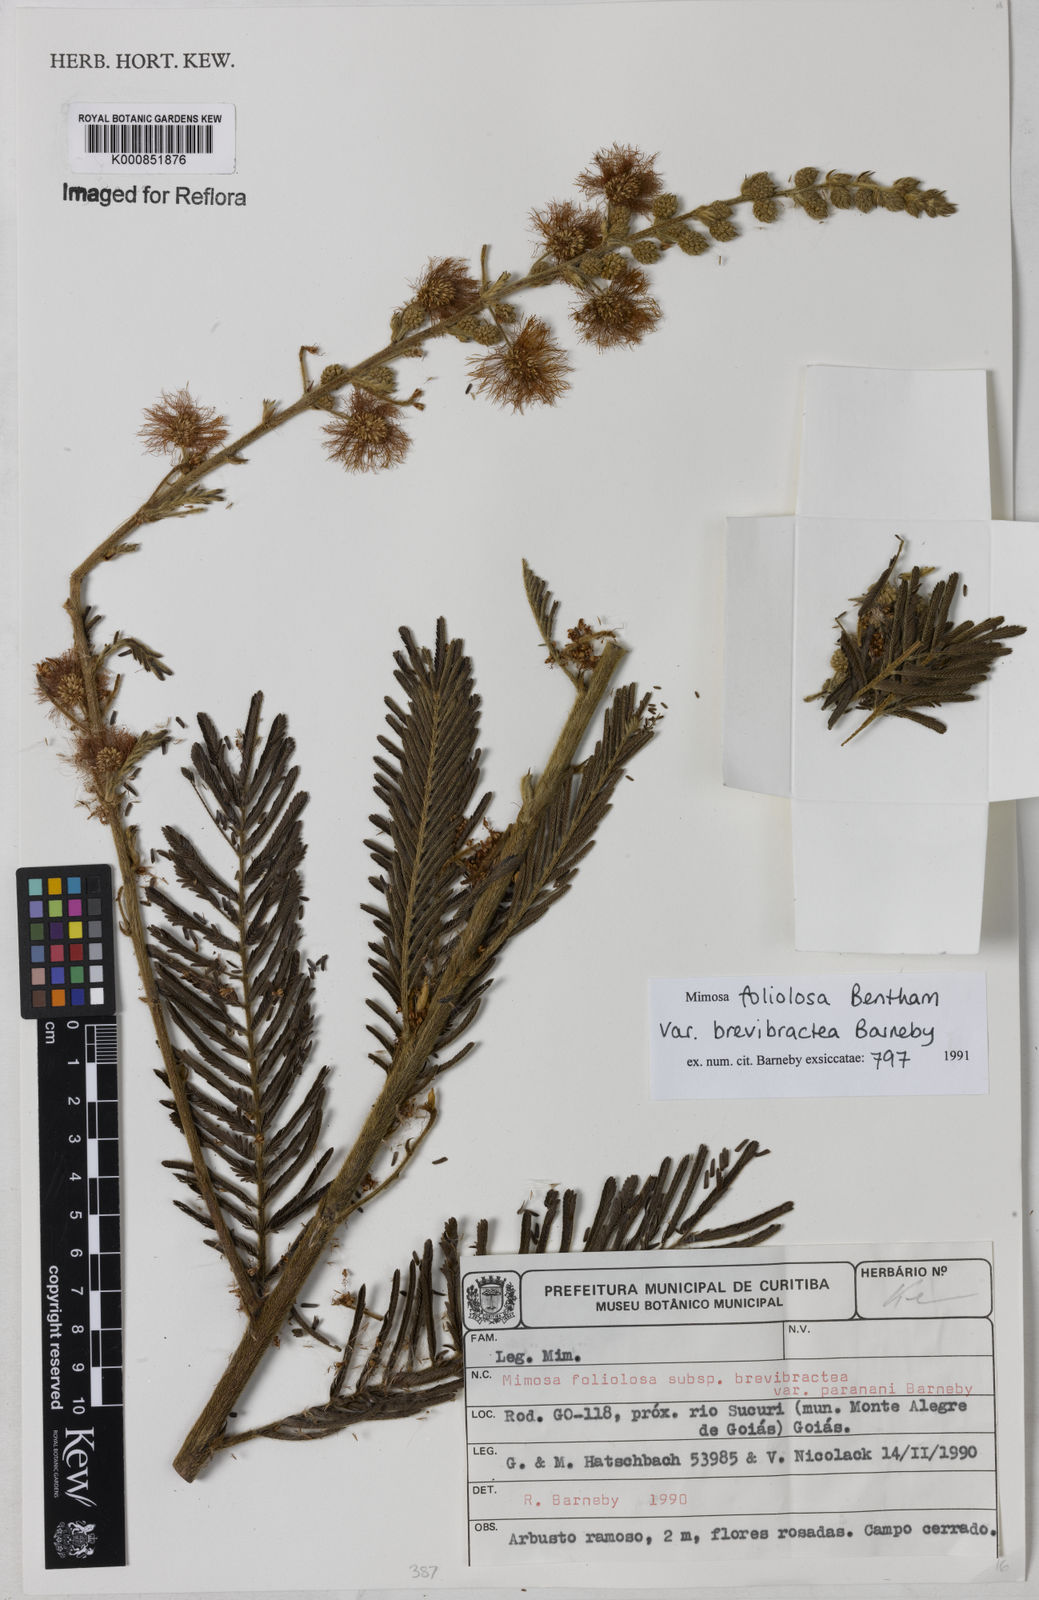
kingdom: Plantae
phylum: Tracheophyta
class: Magnoliopsida
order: Fabales
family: Fabaceae
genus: Mimosa
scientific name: Mimosa antrorsa
